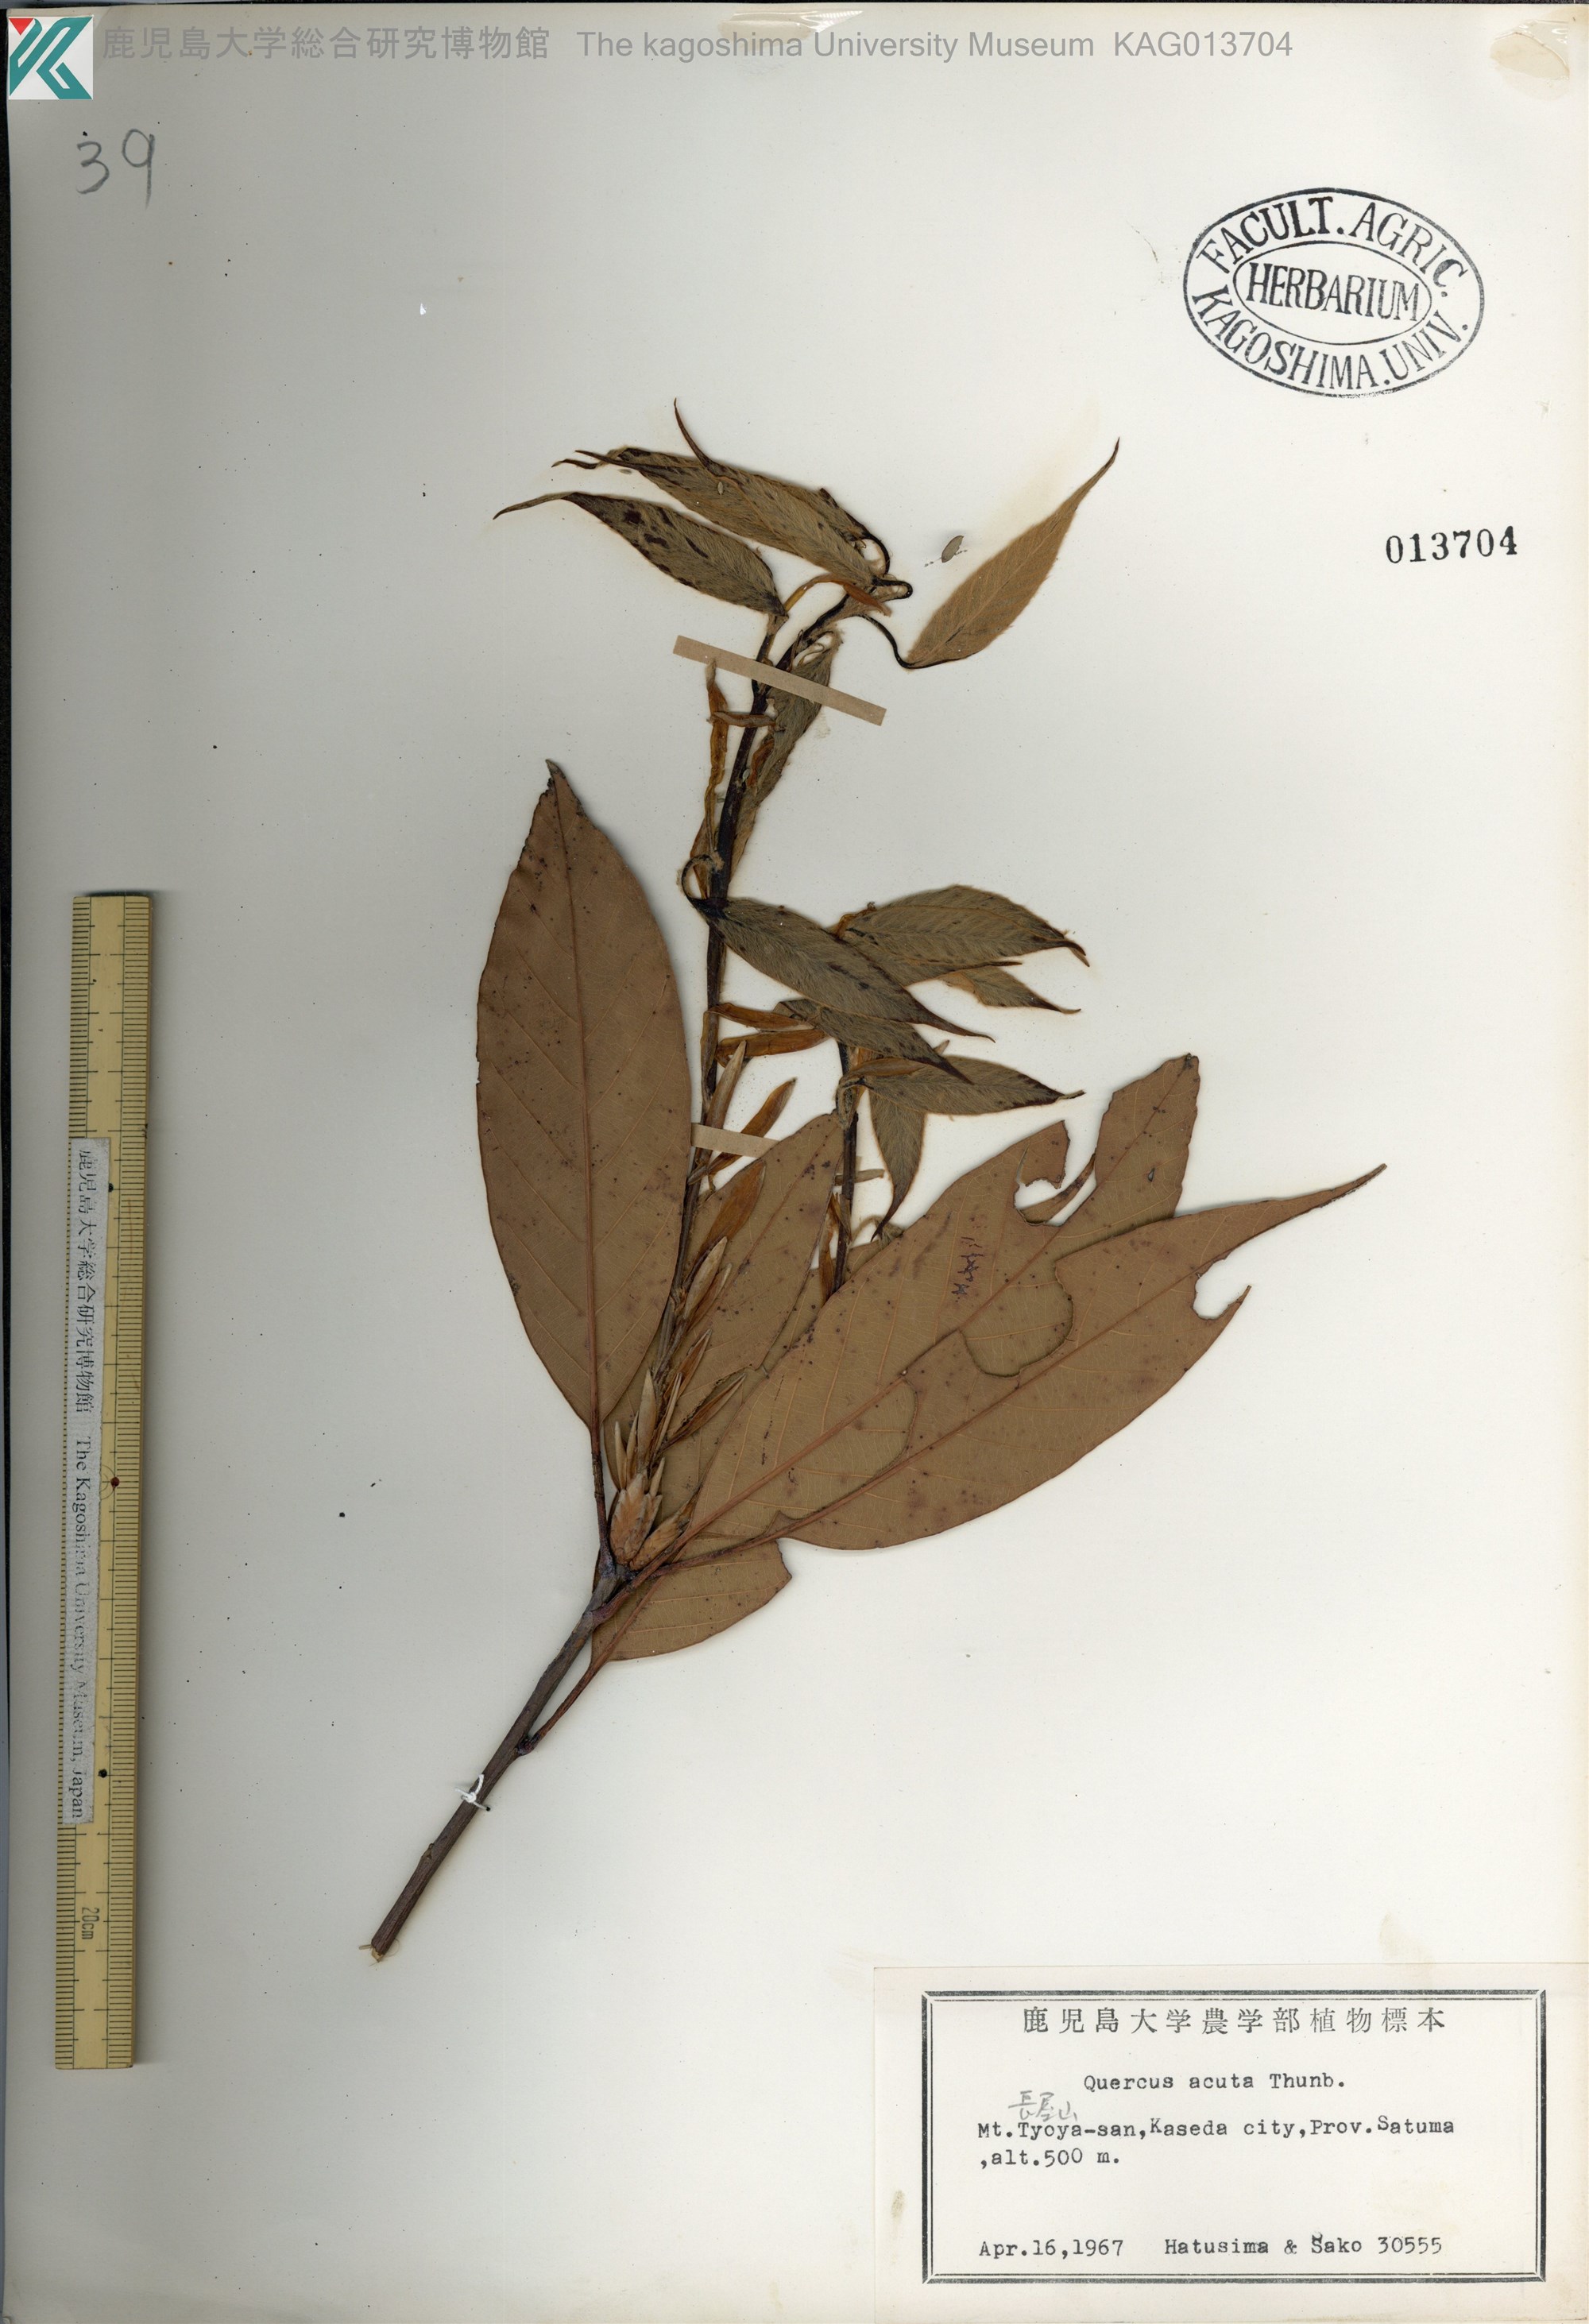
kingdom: Plantae
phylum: Tracheophyta
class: Magnoliopsida
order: Fagales
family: Fagaceae
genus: Quercus
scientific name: Quercus acuta
